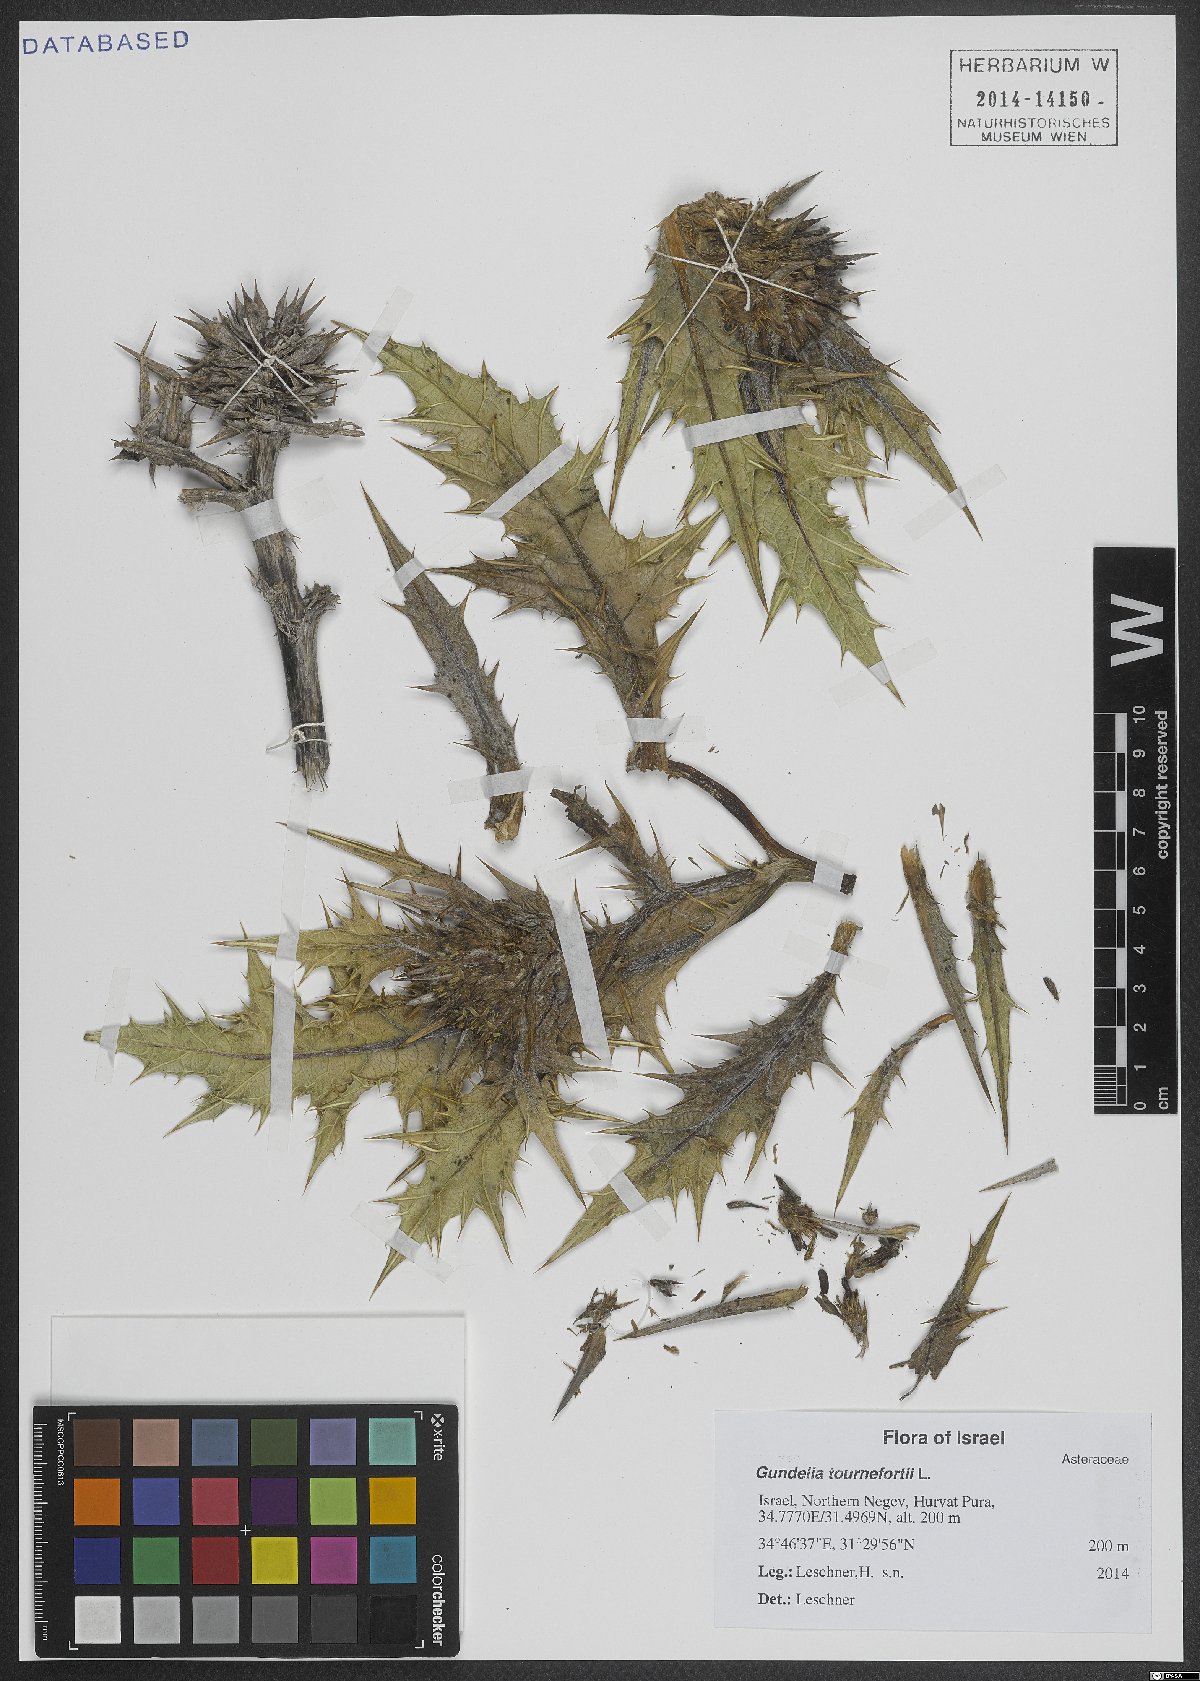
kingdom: Plantae
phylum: Tracheophyta
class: Magnoliopsida
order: Asterales
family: Asteraceae
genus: Gundelia
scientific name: Gundelia tournefortii
